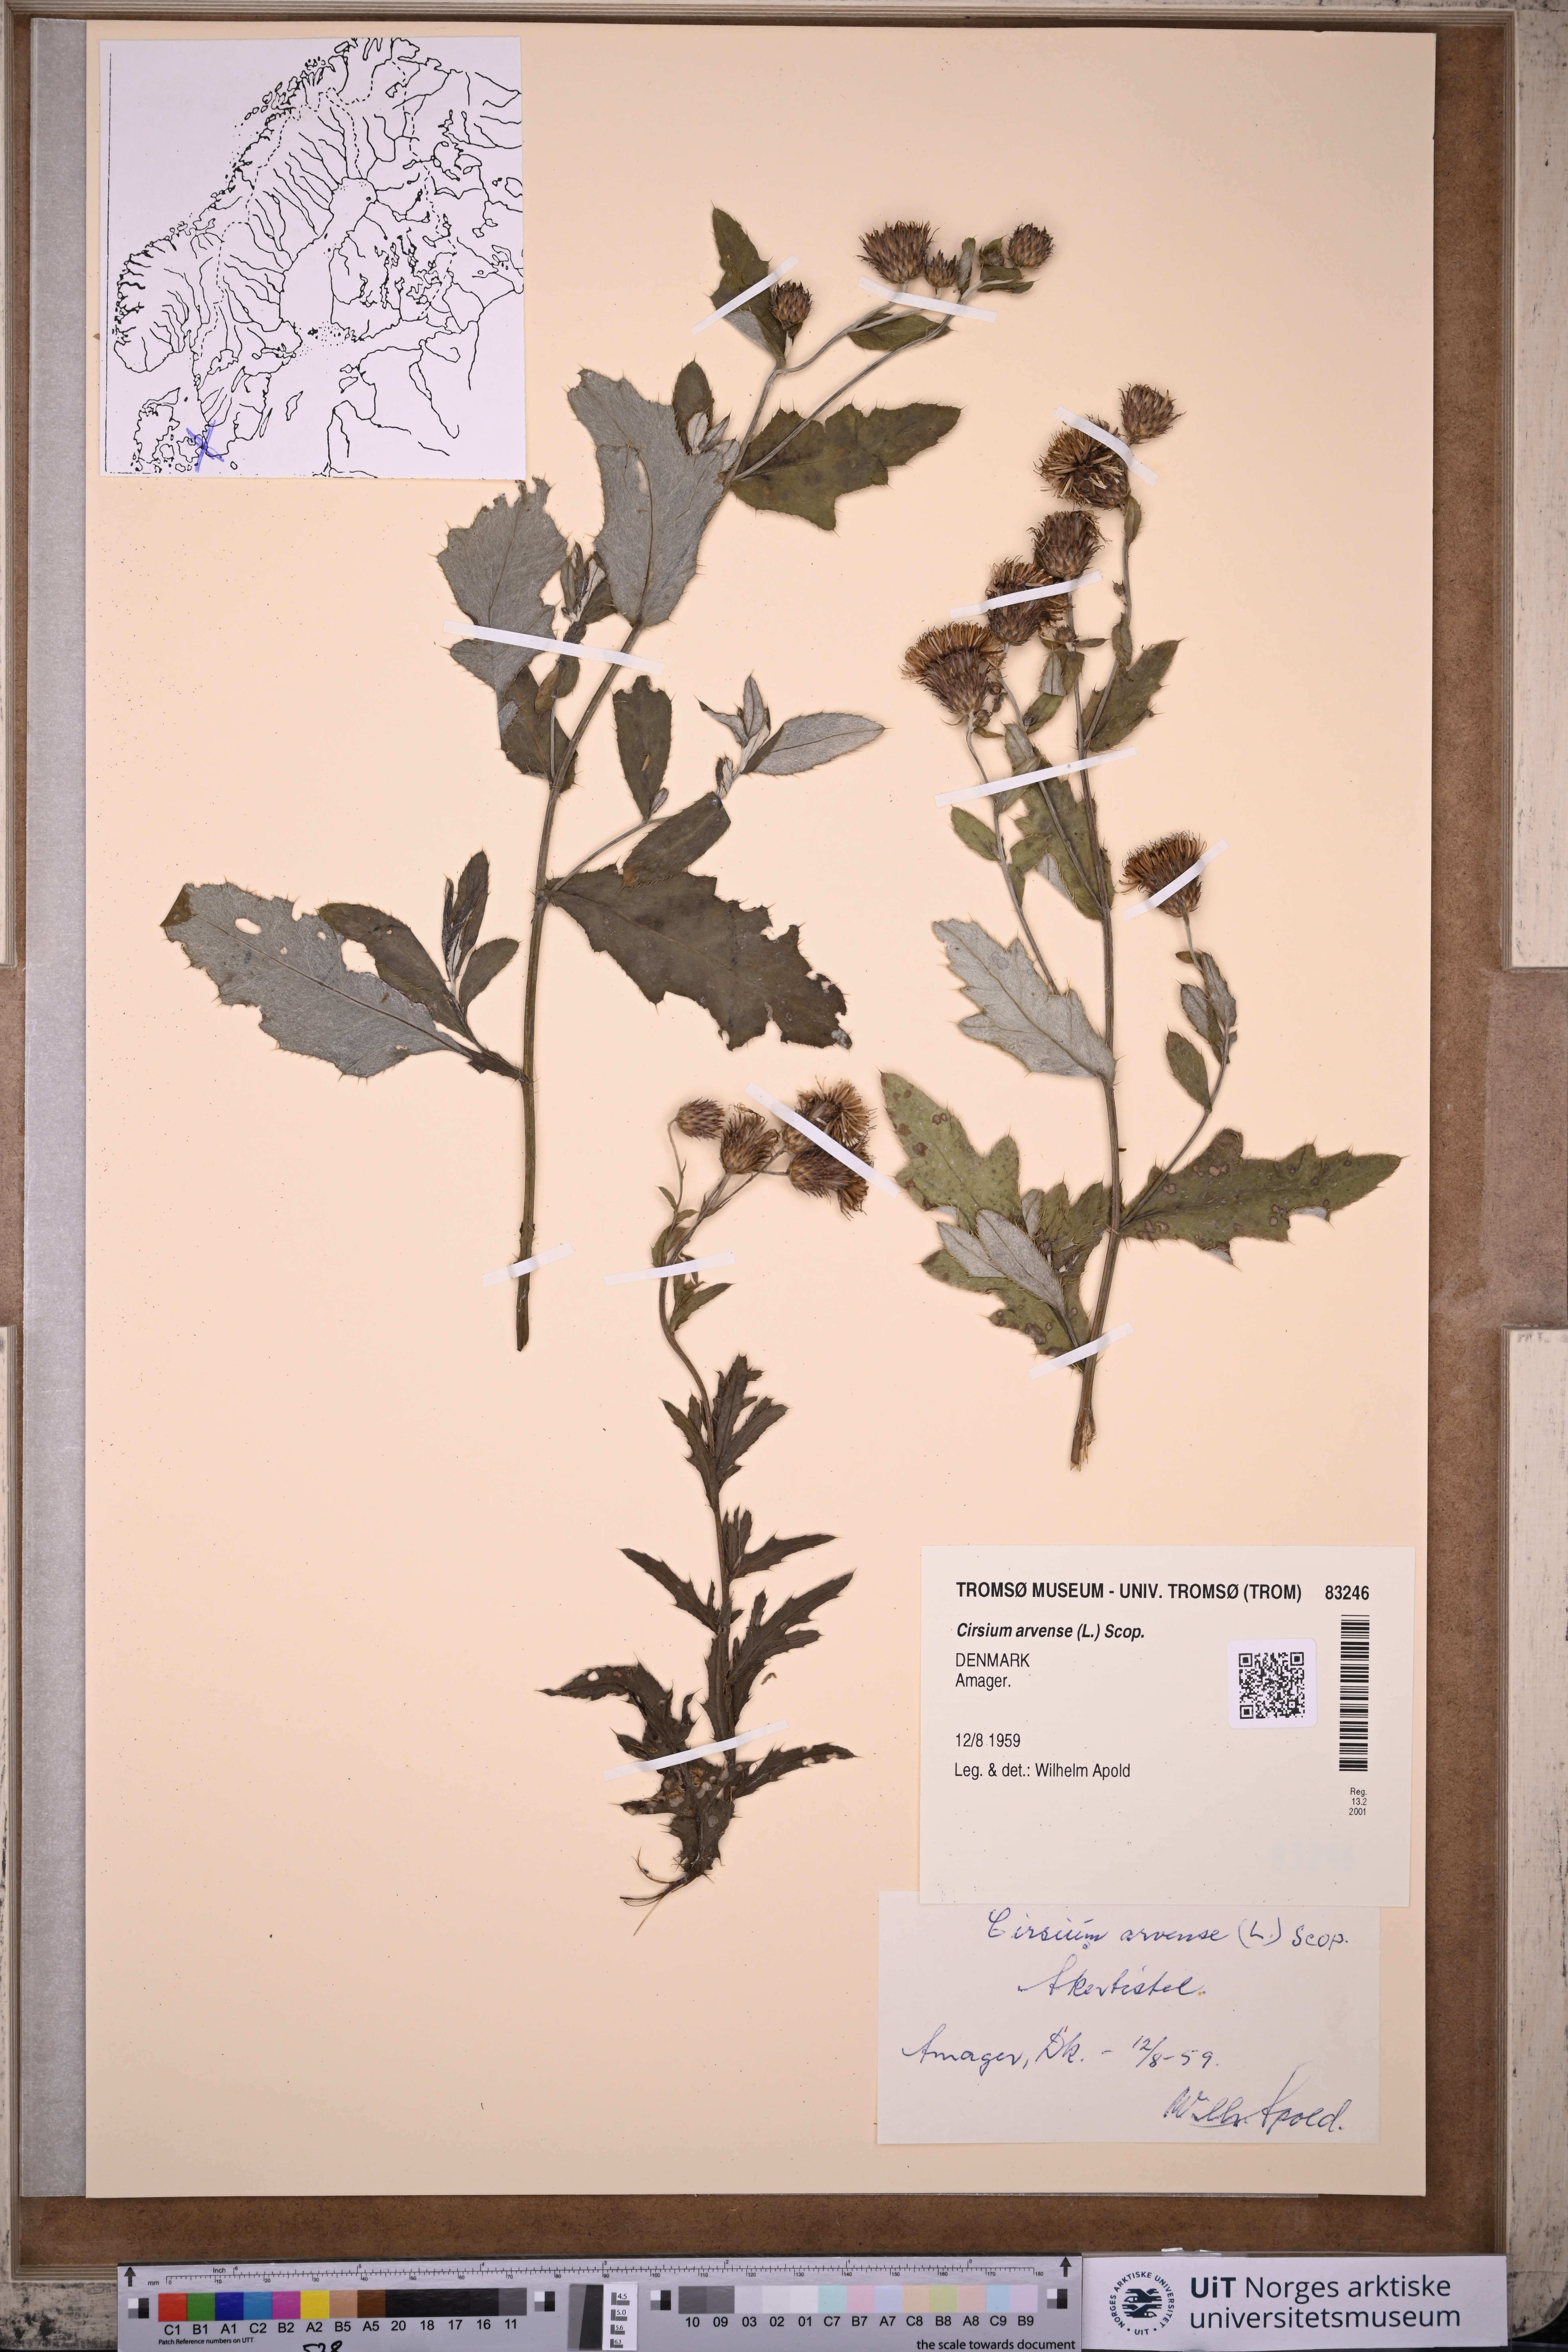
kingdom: Plantae
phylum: Tracheophyta
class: Magnoliopsida
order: Asterales
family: Asteraceae
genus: Cirsium
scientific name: Cirsium arvense
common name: Creeping thistle
